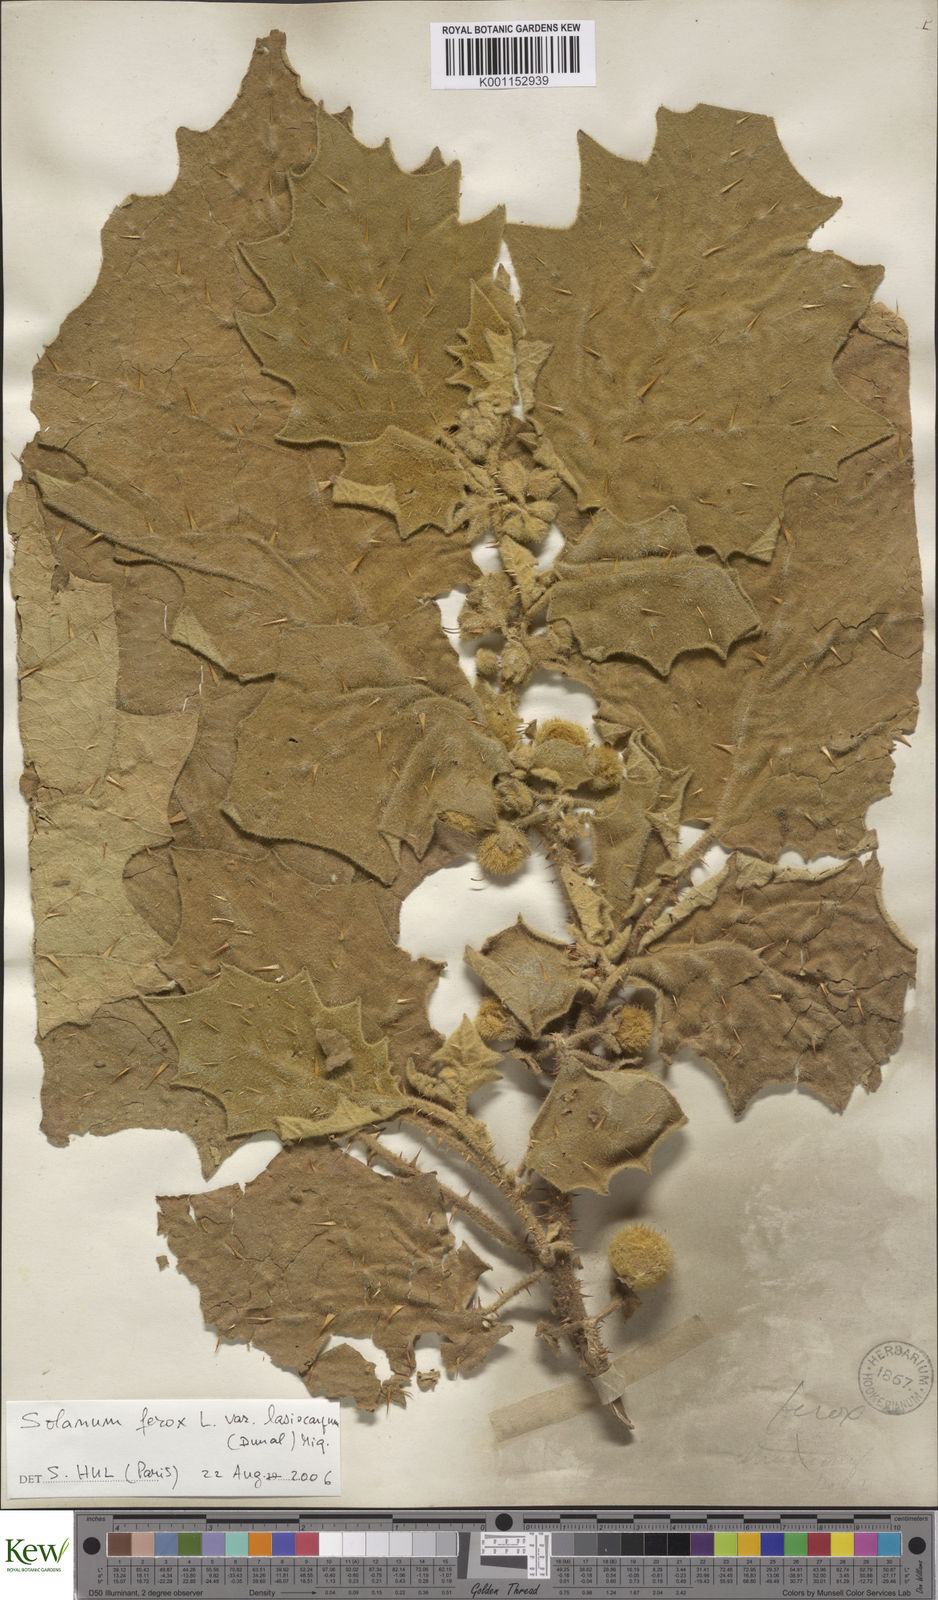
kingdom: Plantae
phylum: Tracheophyta
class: Magnoliopsida
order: Solanales
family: Solanaceae
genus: Solanum
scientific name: Solanum
